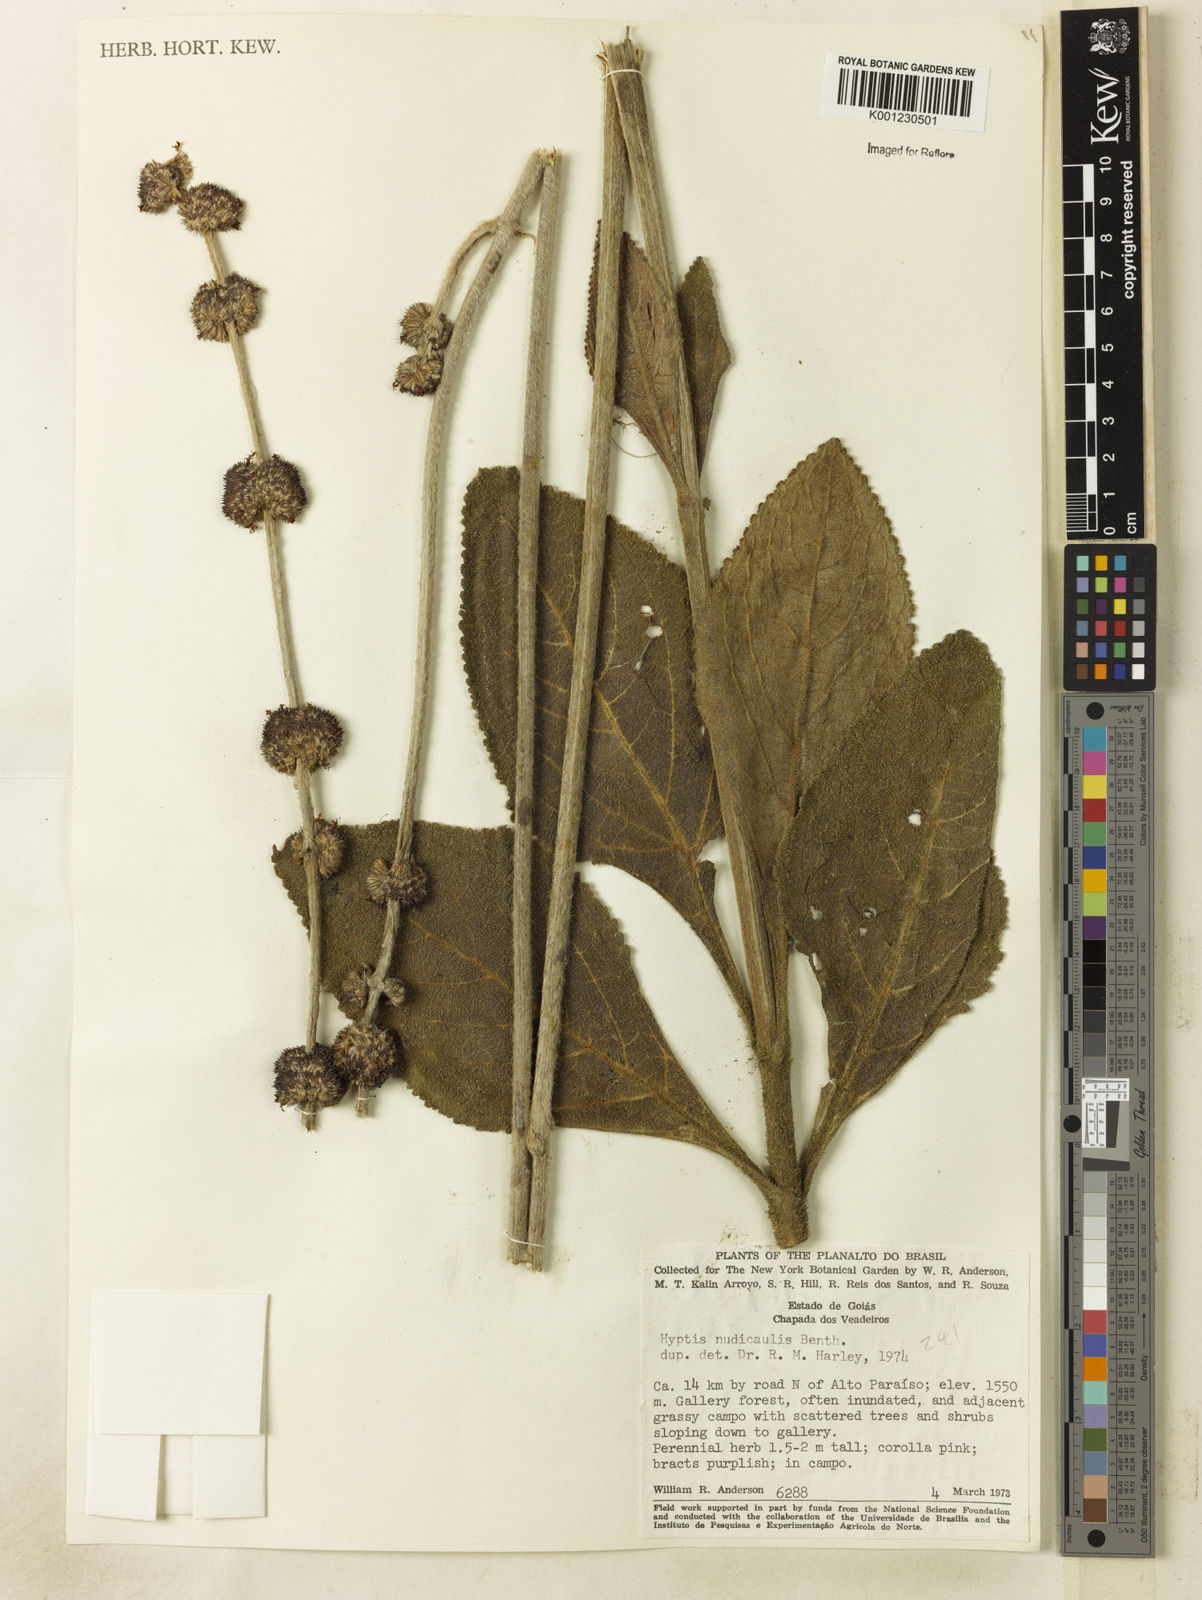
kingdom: Plantae
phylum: Tracheophyta
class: Magnoliopsida
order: Lamiales
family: Lamiaceae
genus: Hyptis
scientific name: Hyptis nudicaulis
